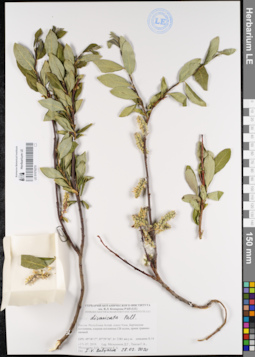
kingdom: Plantae
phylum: Tracheophyta
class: Magnoliopsida
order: Malpighiales
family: Salicaceae
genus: Salix
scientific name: Salix divaricata
